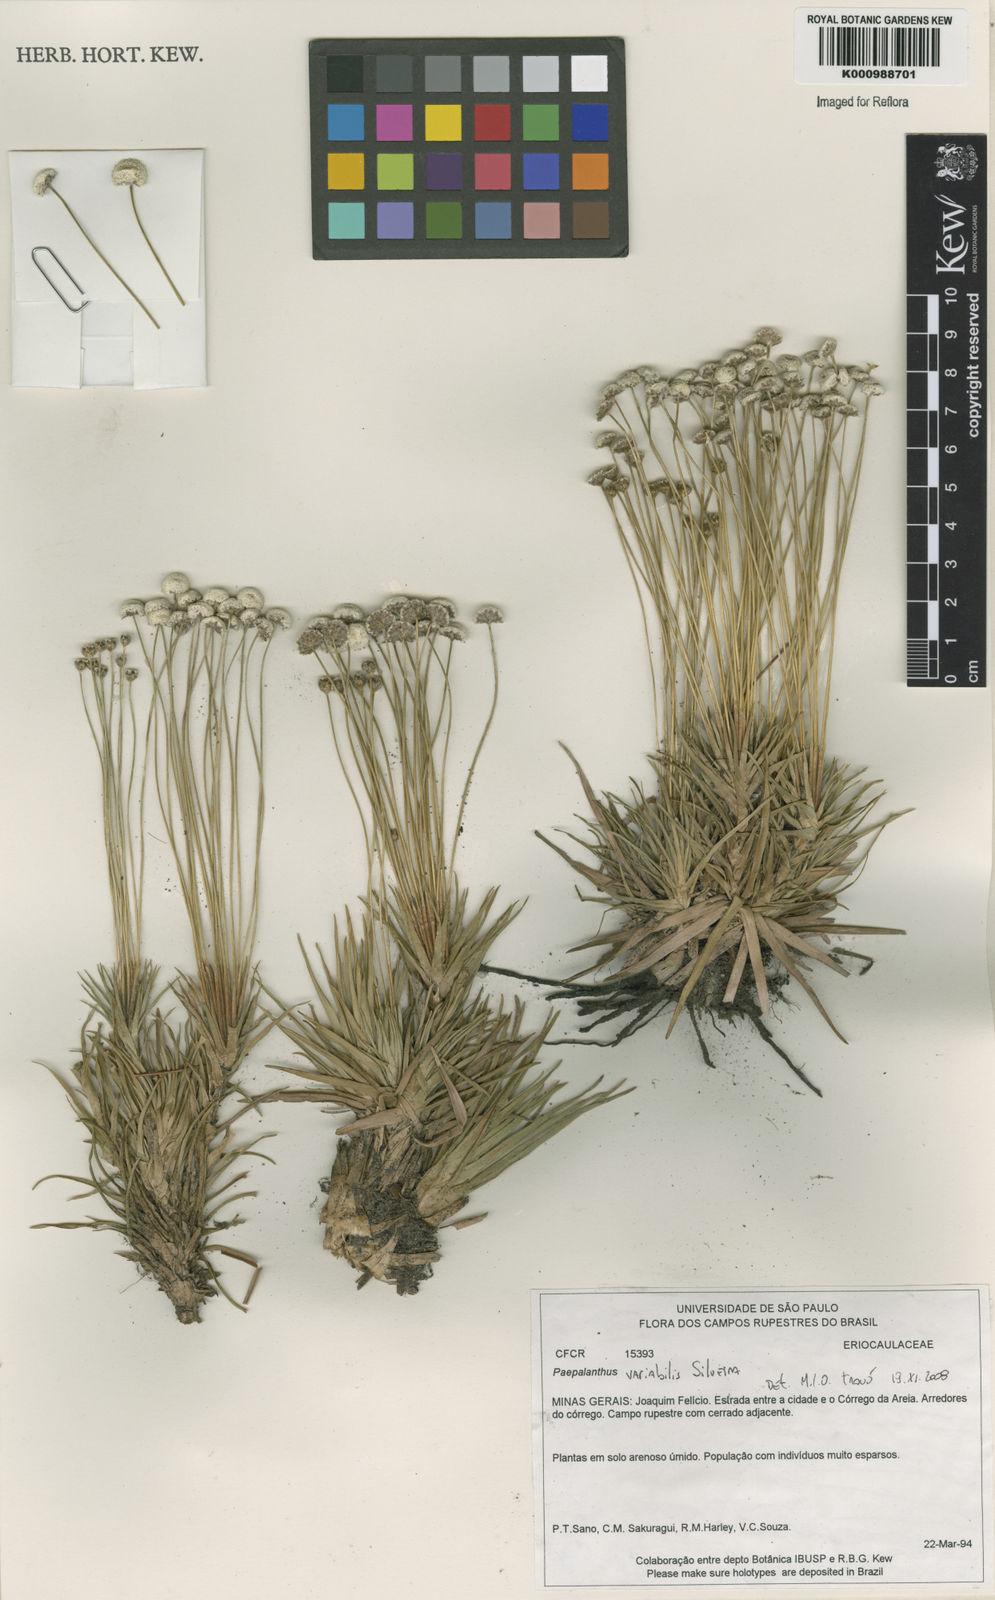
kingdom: Plantae
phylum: Tracheophyta
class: Liliopsida
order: Poales
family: Eriocaulaceae
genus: Paepalanthus
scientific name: Paepalanthus bahiensis
